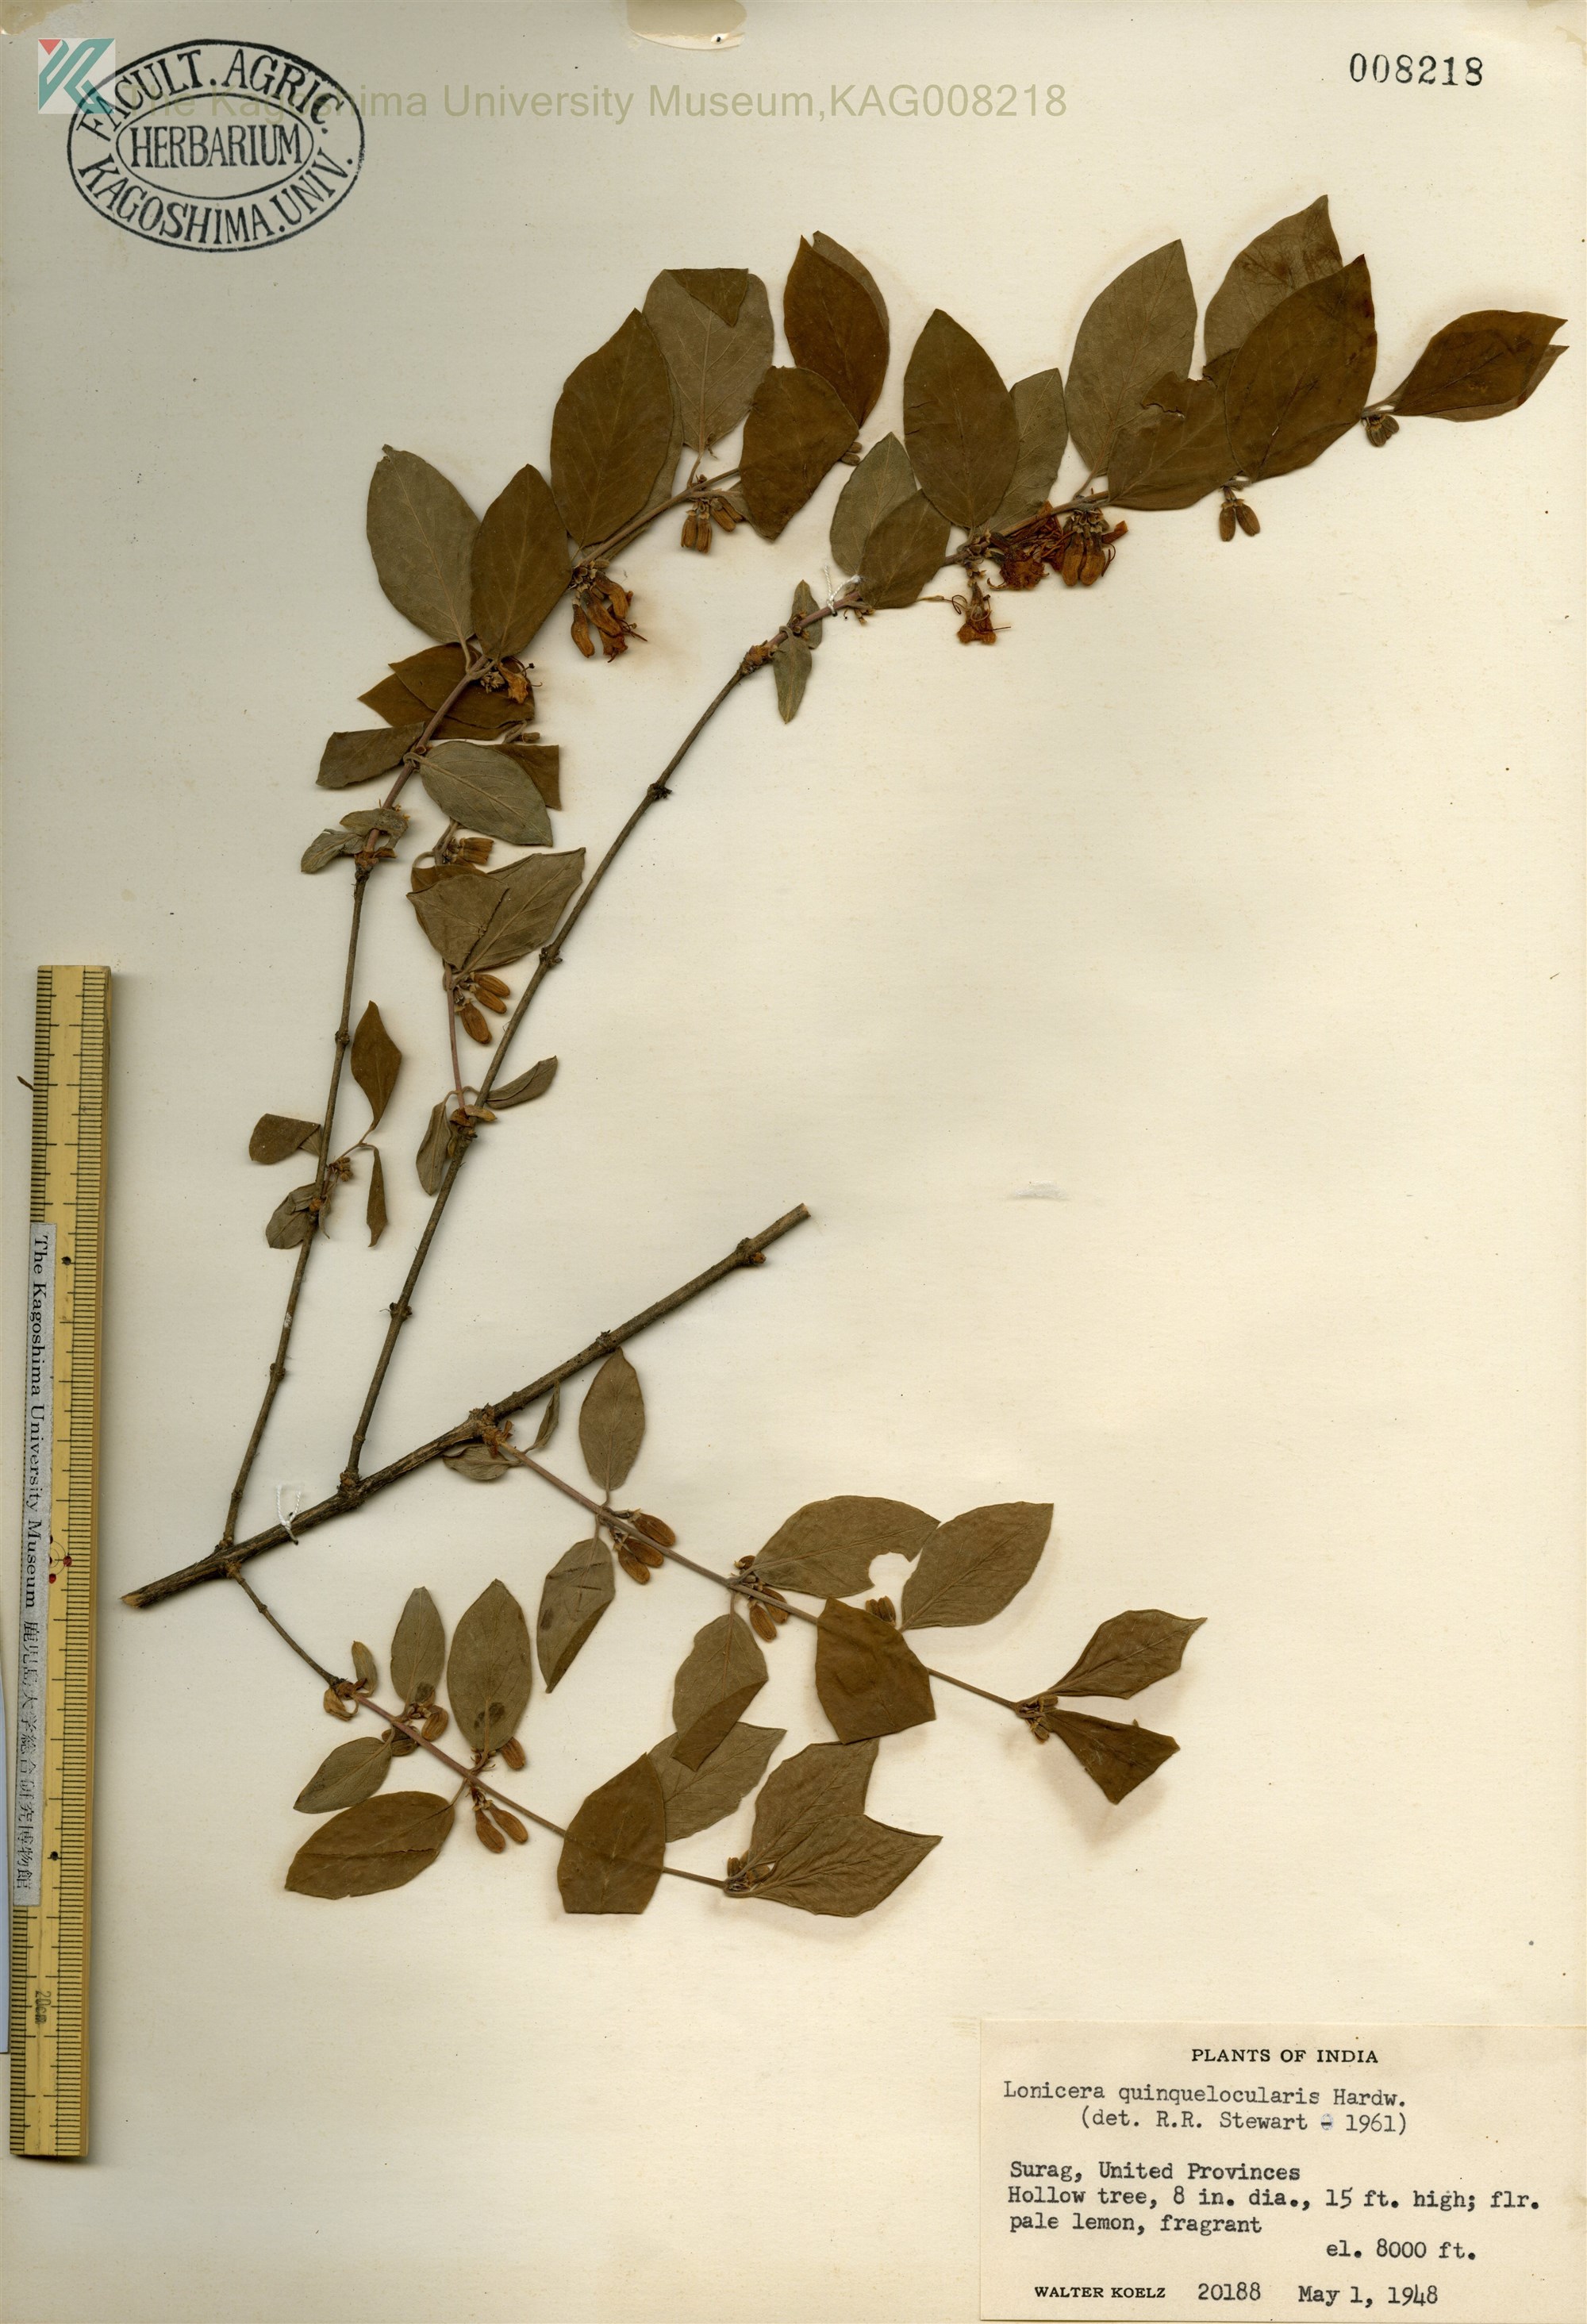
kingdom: Plantae
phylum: Tracheophyta
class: Magnoliopsida
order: Dipsacales
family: Caprifoliaceae
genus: Lonicera
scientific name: Lonicera quinquelocularis
